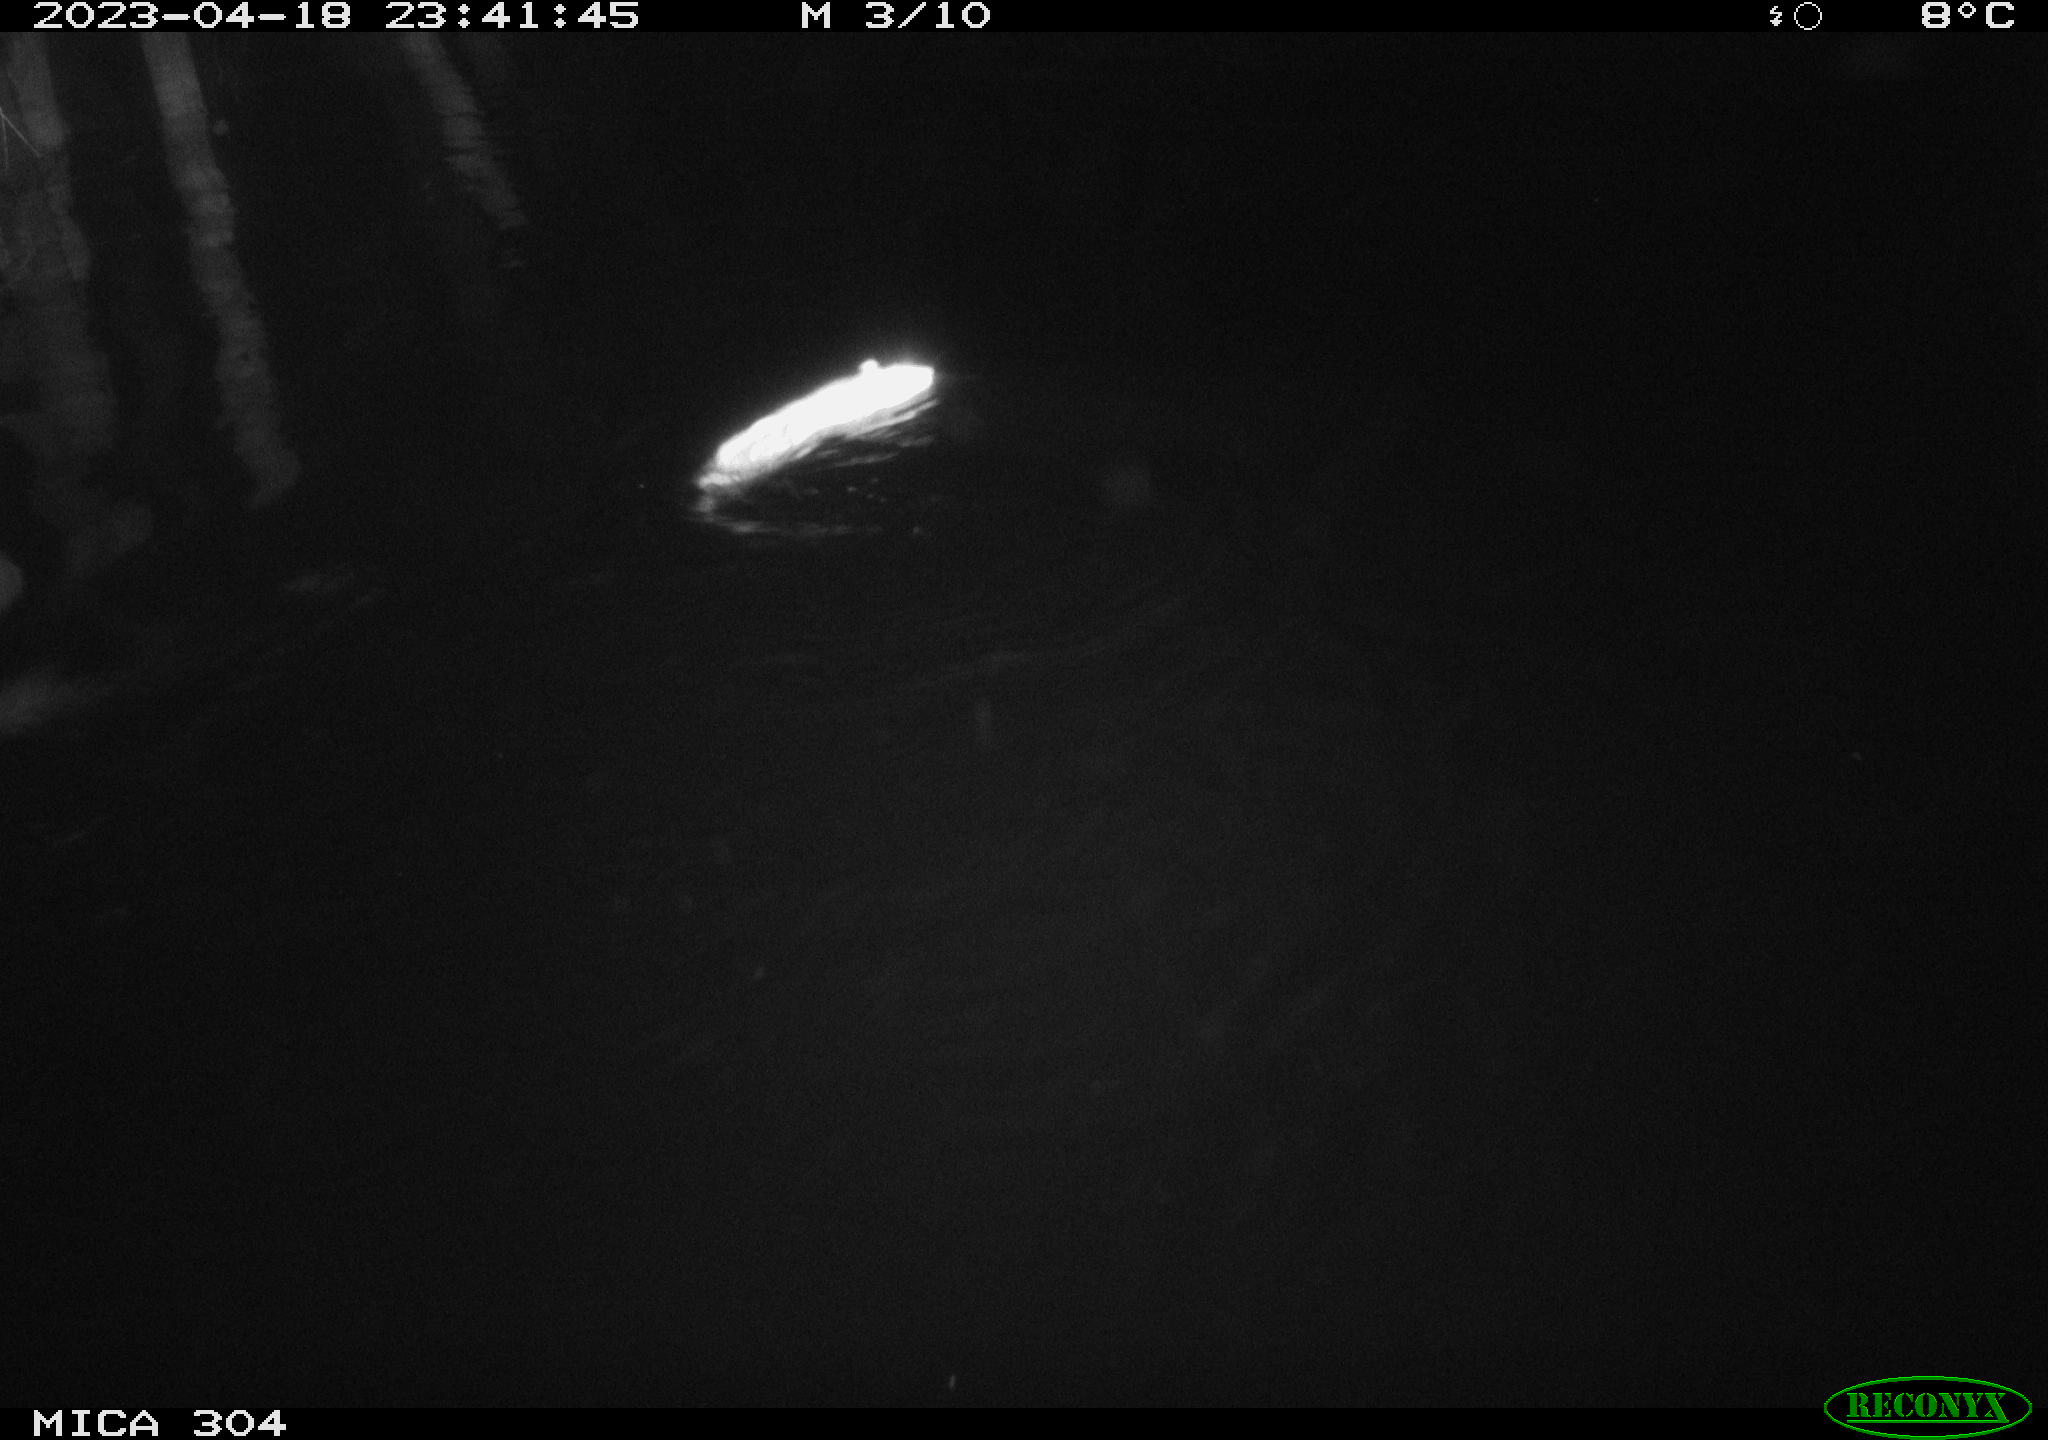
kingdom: Animalia
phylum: Chordata
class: Mammalia
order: Rodentia
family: Muridae
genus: Rattus
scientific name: Rattus norvegicus
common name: Brown rat
